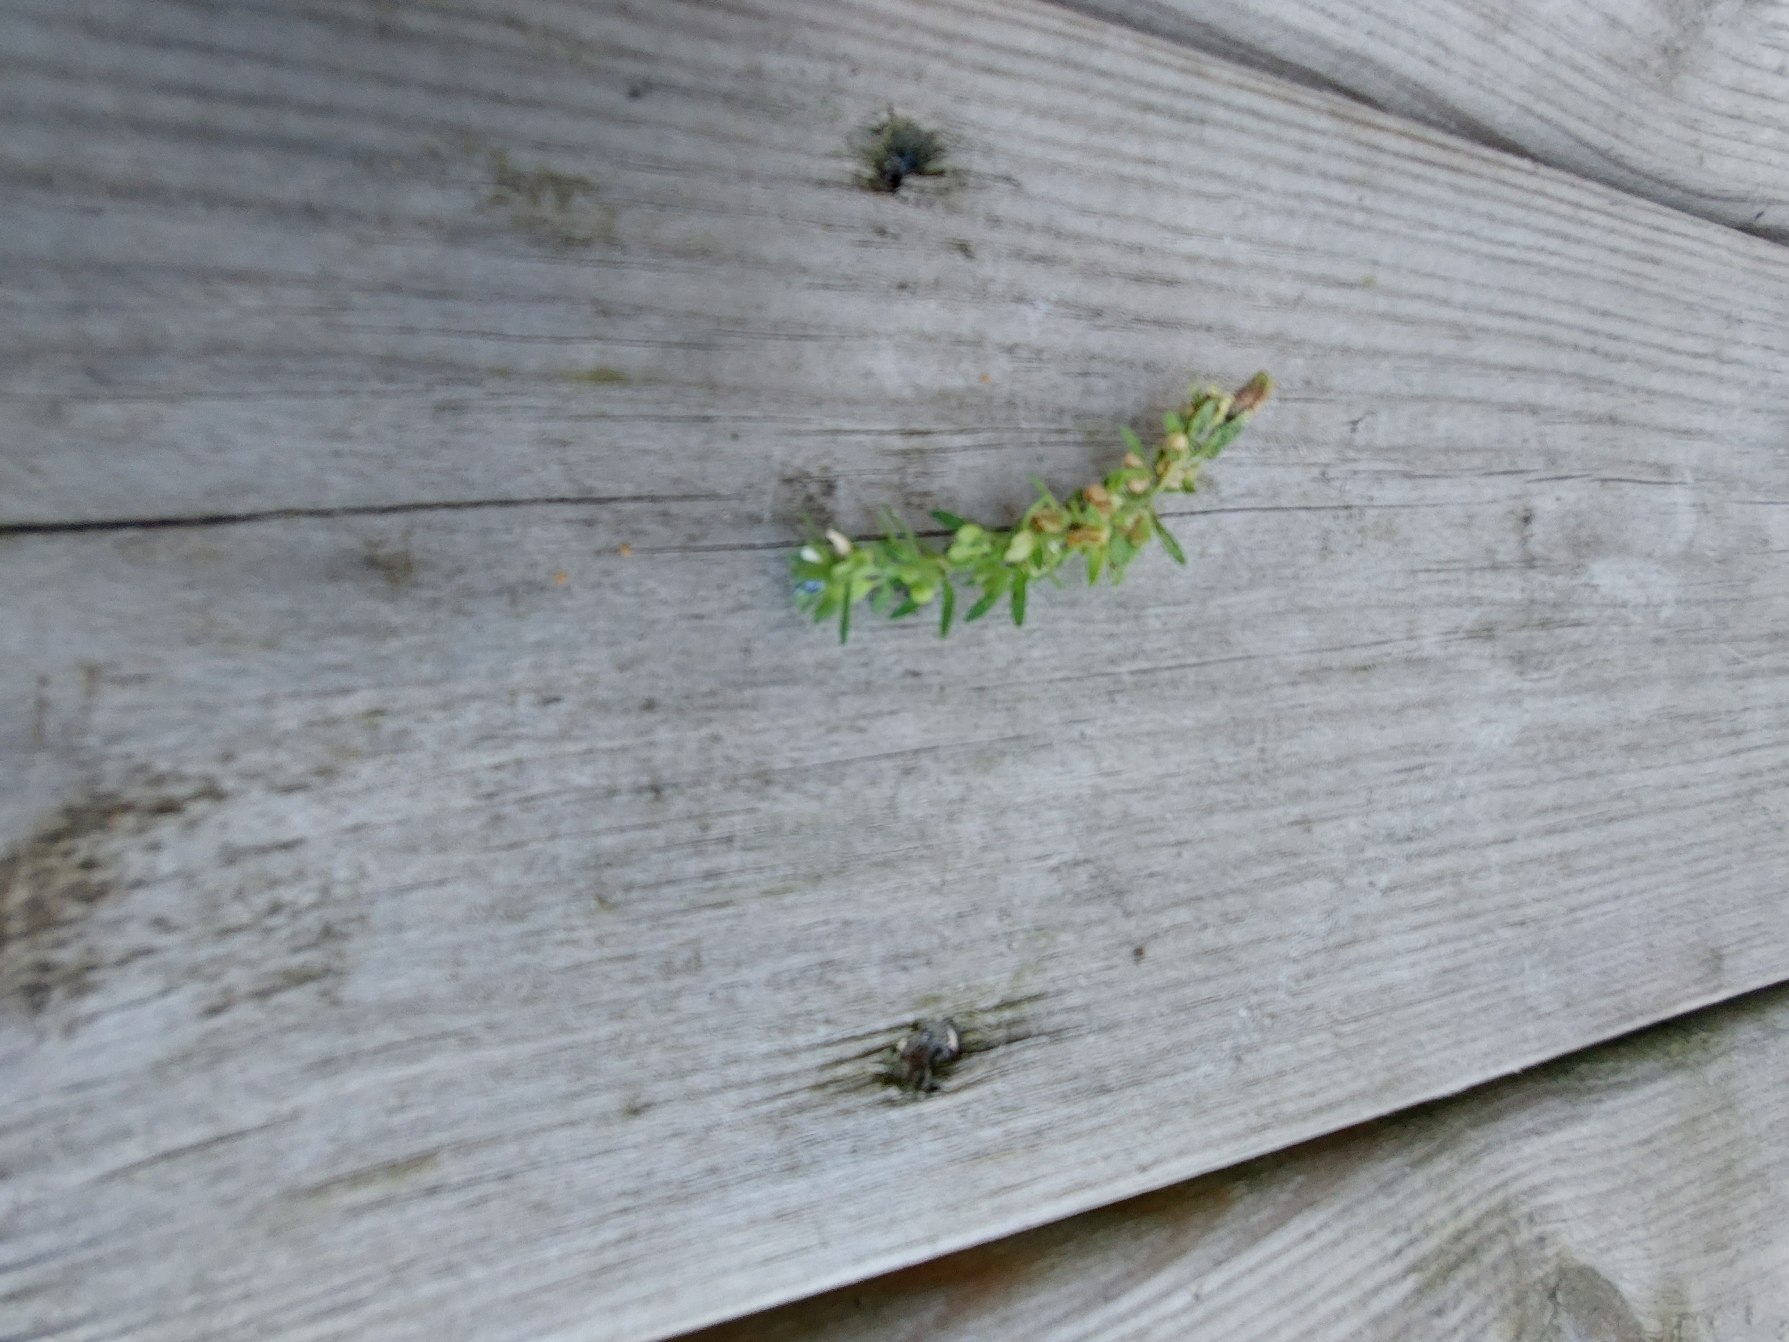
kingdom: Plantae
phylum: Tracheophyta
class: Magnoliopsida
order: Lamiales
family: Plantaginaceae
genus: Veronica
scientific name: Veronica arvensis
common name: Mark-ærenpris
